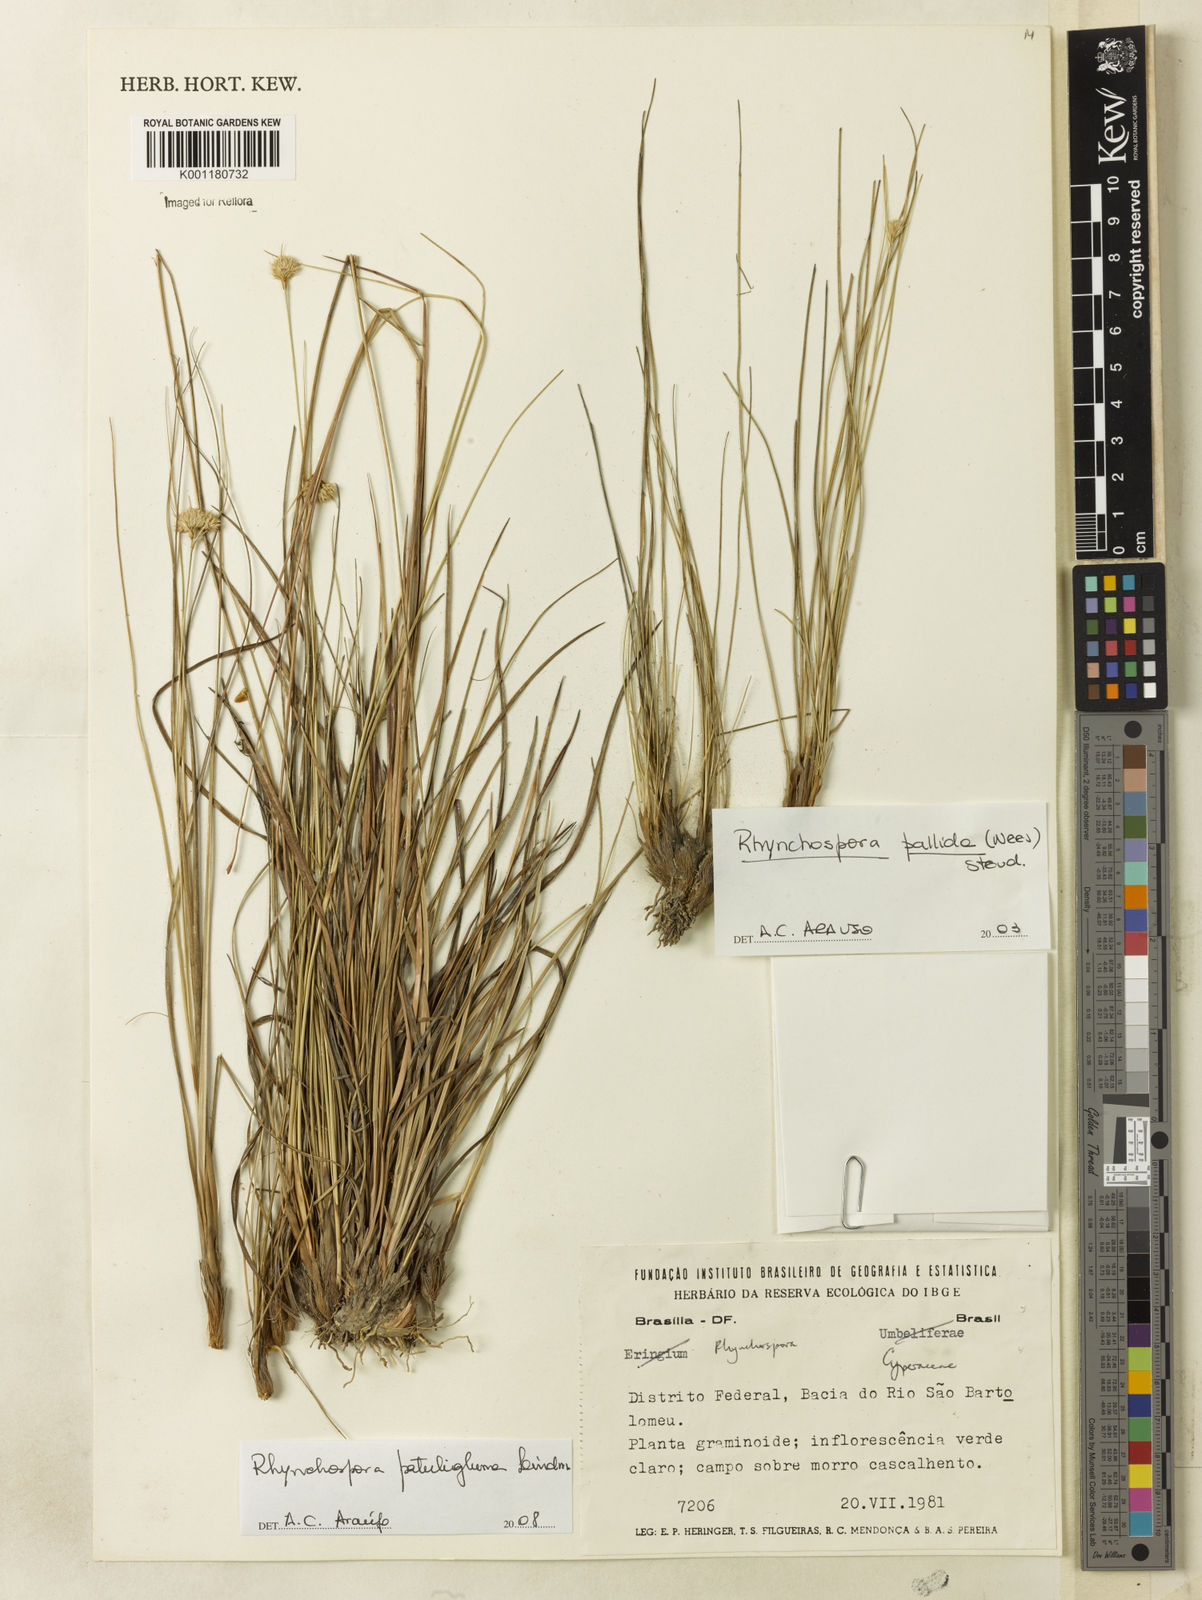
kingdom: Plantae
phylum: Tracheophyta
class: Liliopsida
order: Poales
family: Cyperaceae
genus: Rhynchospora
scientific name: Rhynchospora patuligluma
